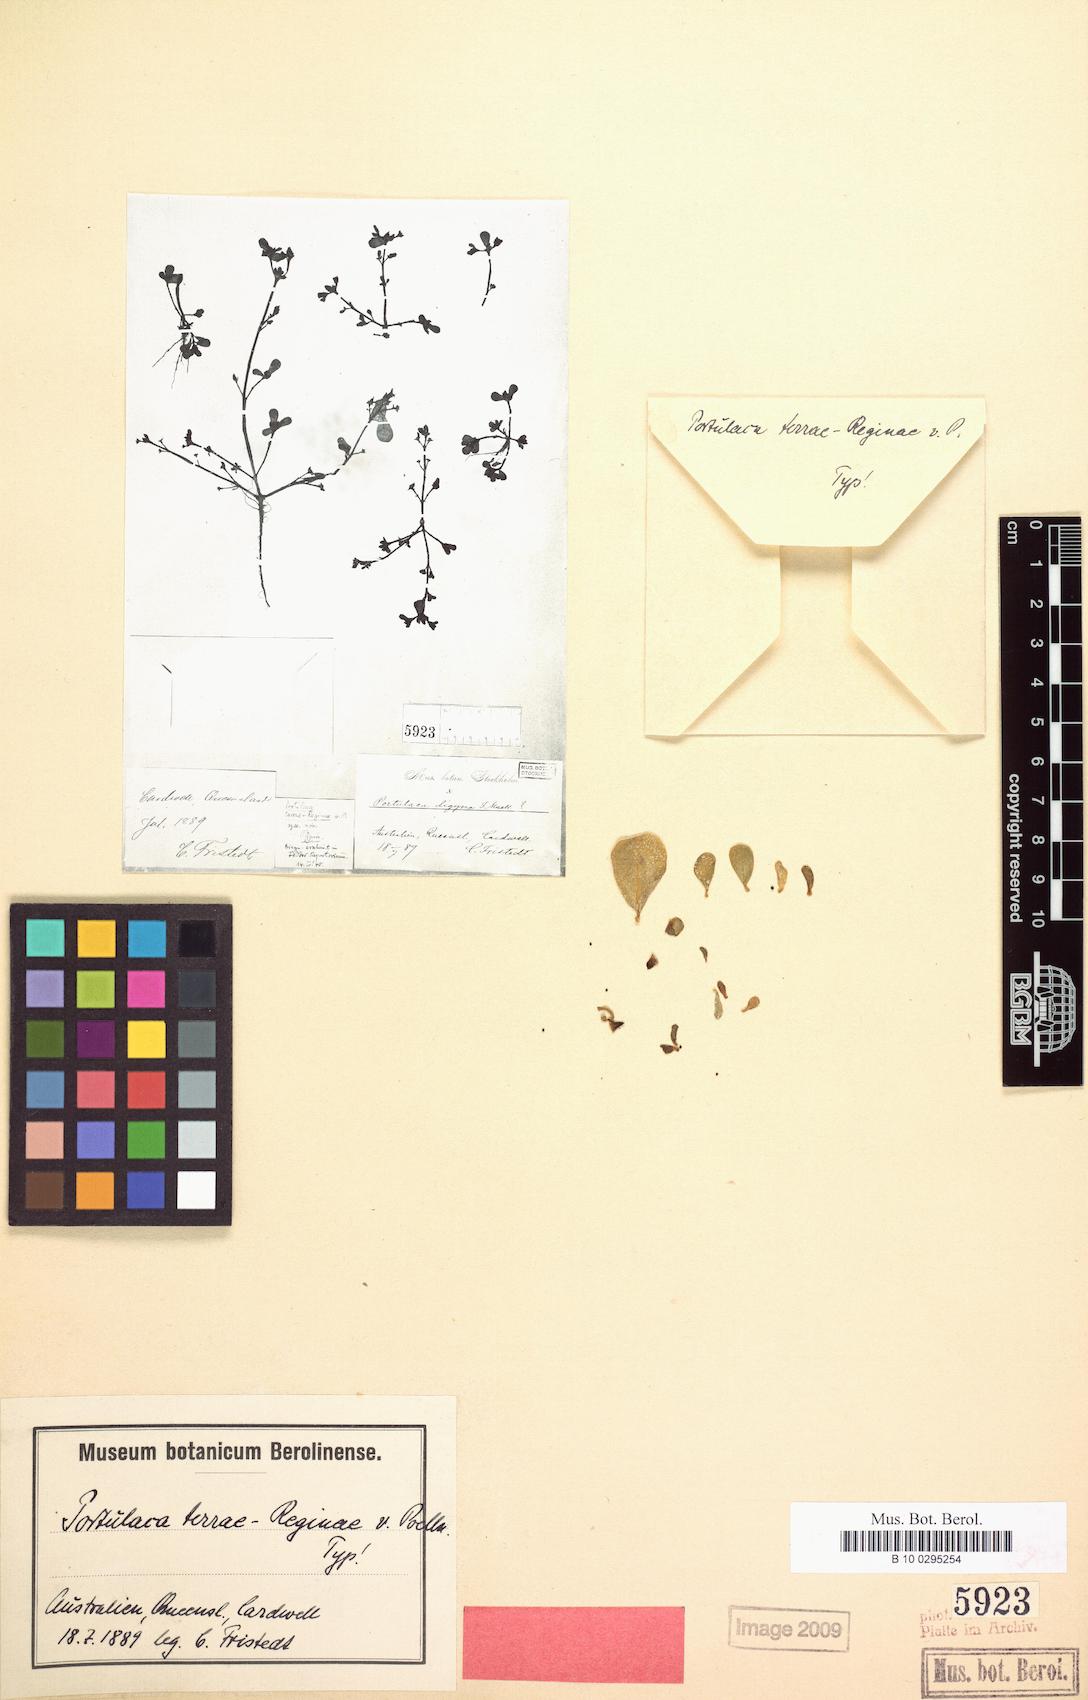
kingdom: Plantae
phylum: Tracheophyta
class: Magnoliopsida
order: Caryophyllales
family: Portulacaceae
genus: Portulaca
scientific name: Portulaca oleracea
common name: Common purslane
